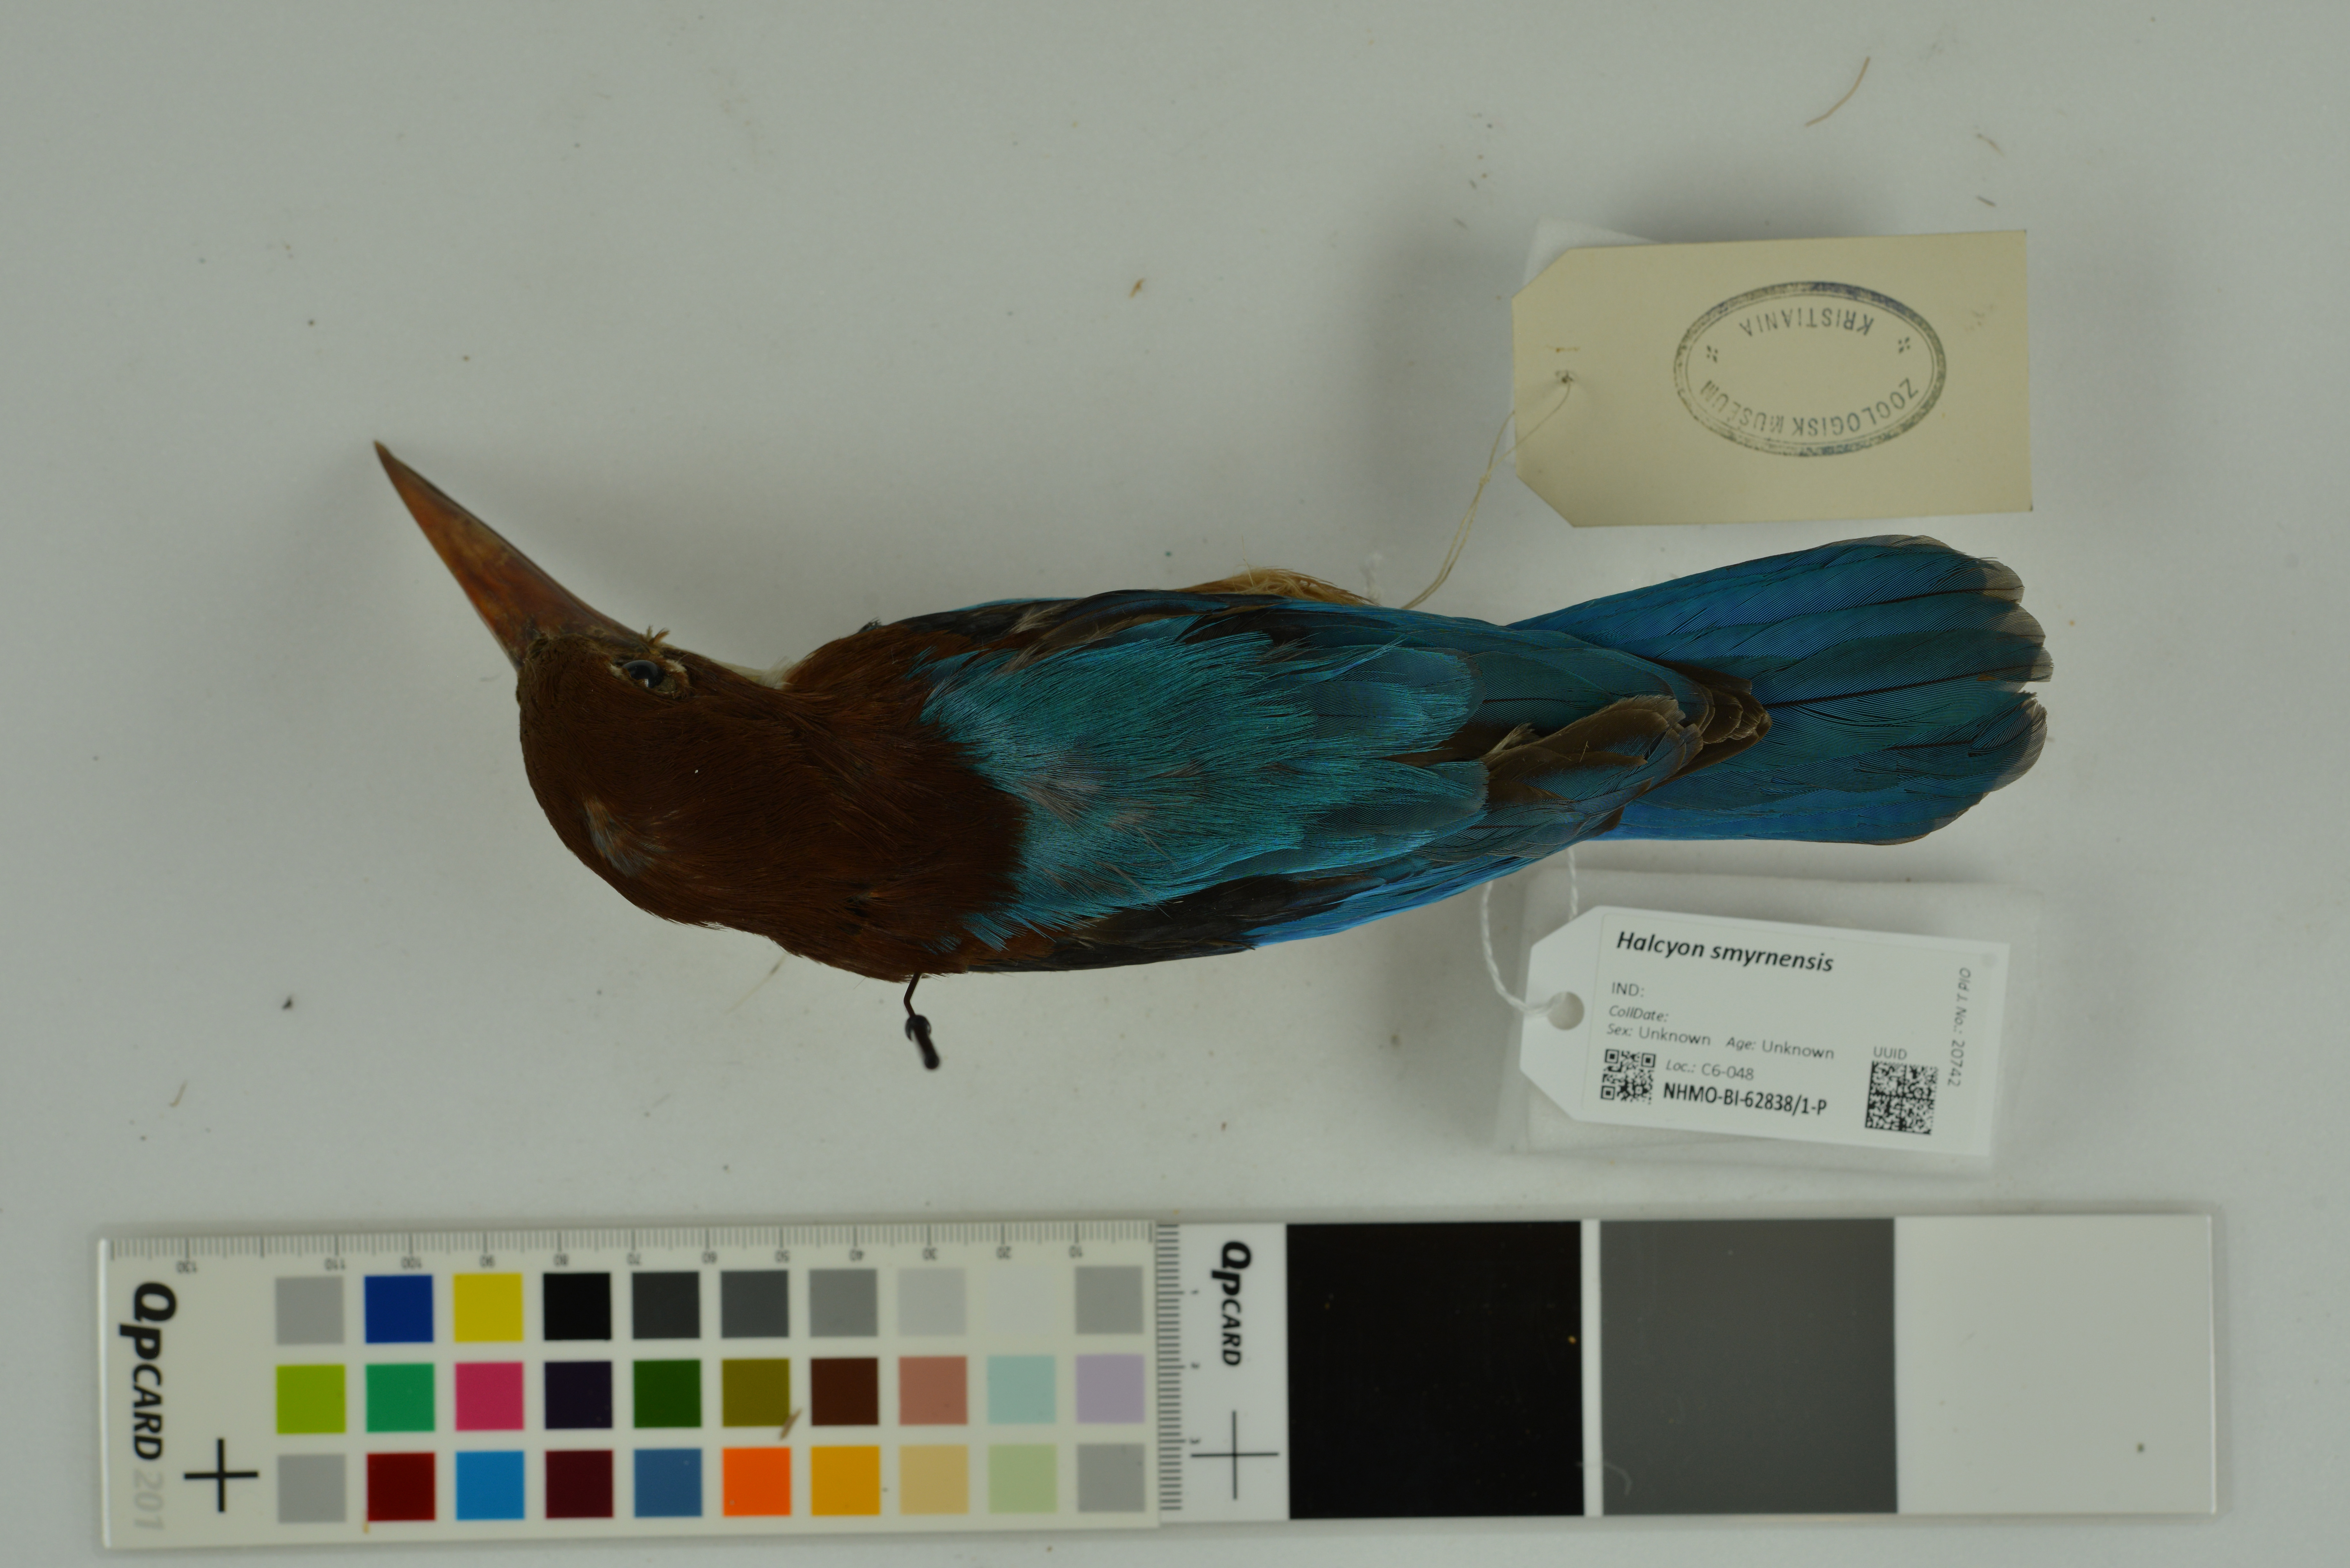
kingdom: Animalia
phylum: Chordata
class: Aves
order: Coraciiformes
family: Alcedinidae
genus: Halcyon
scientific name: Halcyon smyrnensis
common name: White-throated kingfisher
